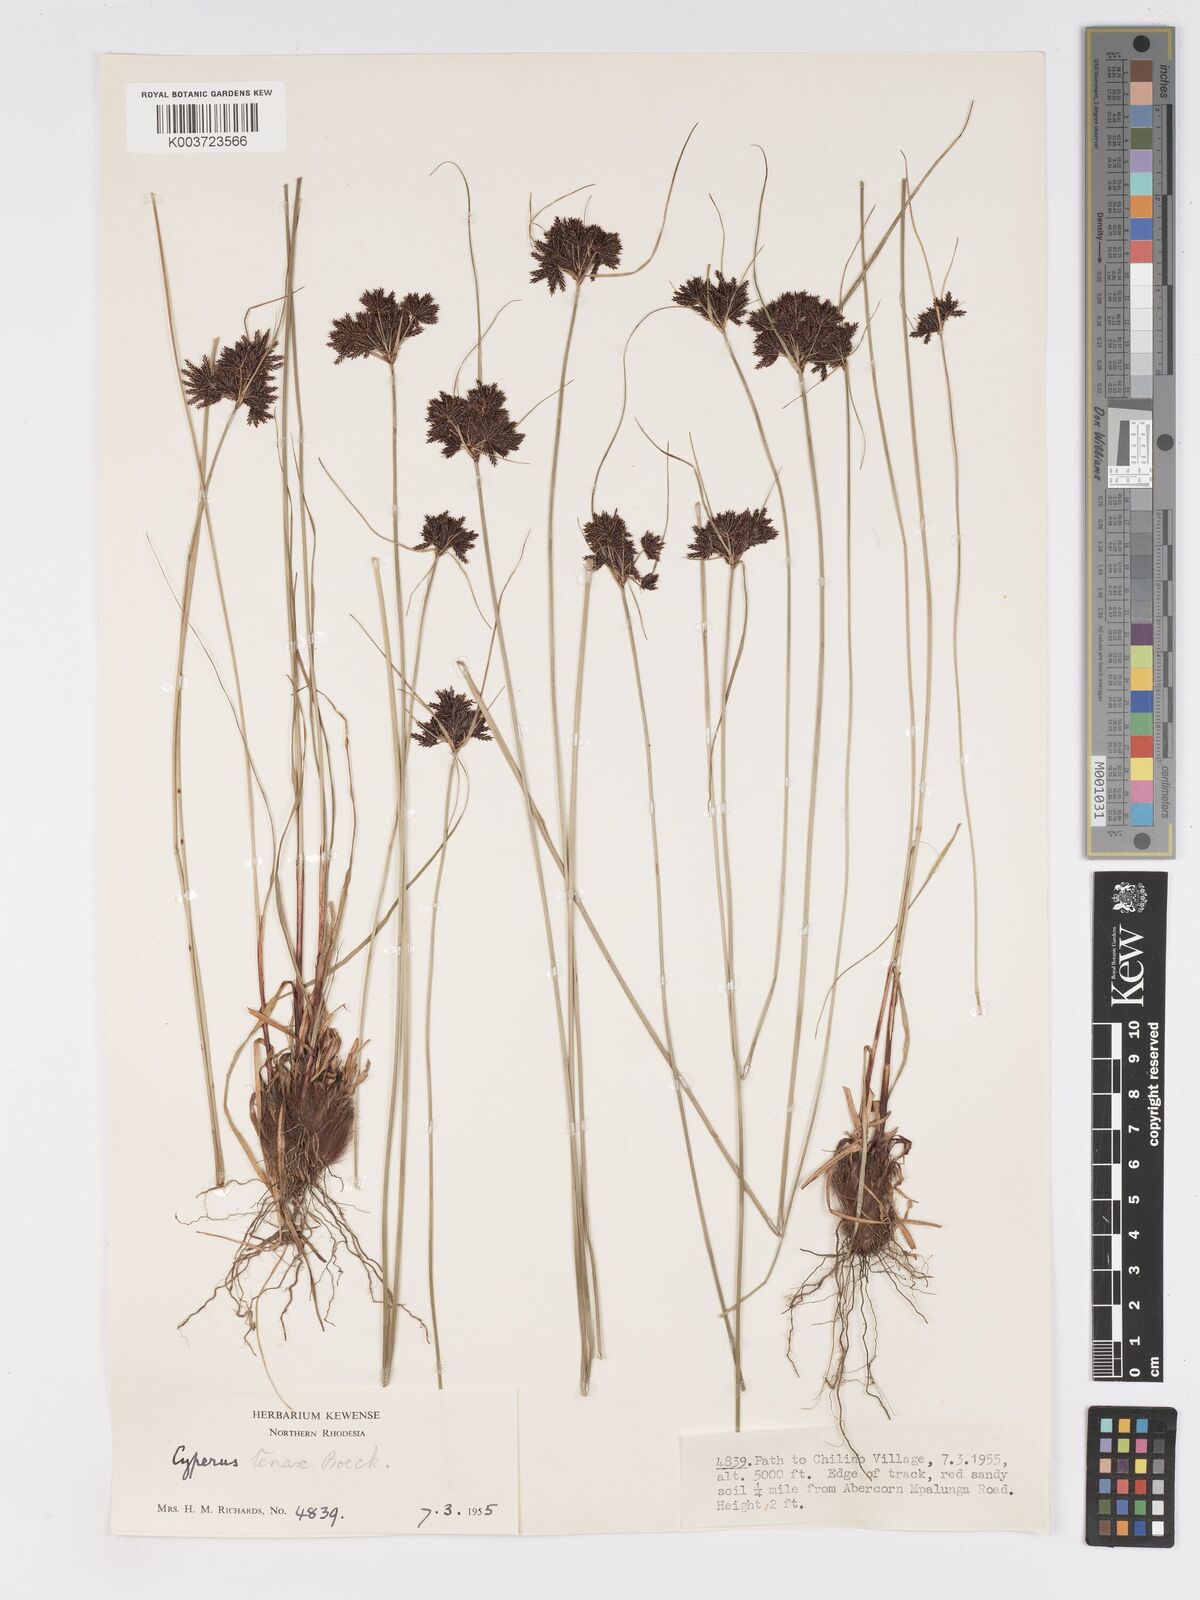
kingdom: Plantae
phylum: Tracheophyta
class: Liliopsida
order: Poales
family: Cyperaceae
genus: Cyperus
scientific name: Cyperus tenax
